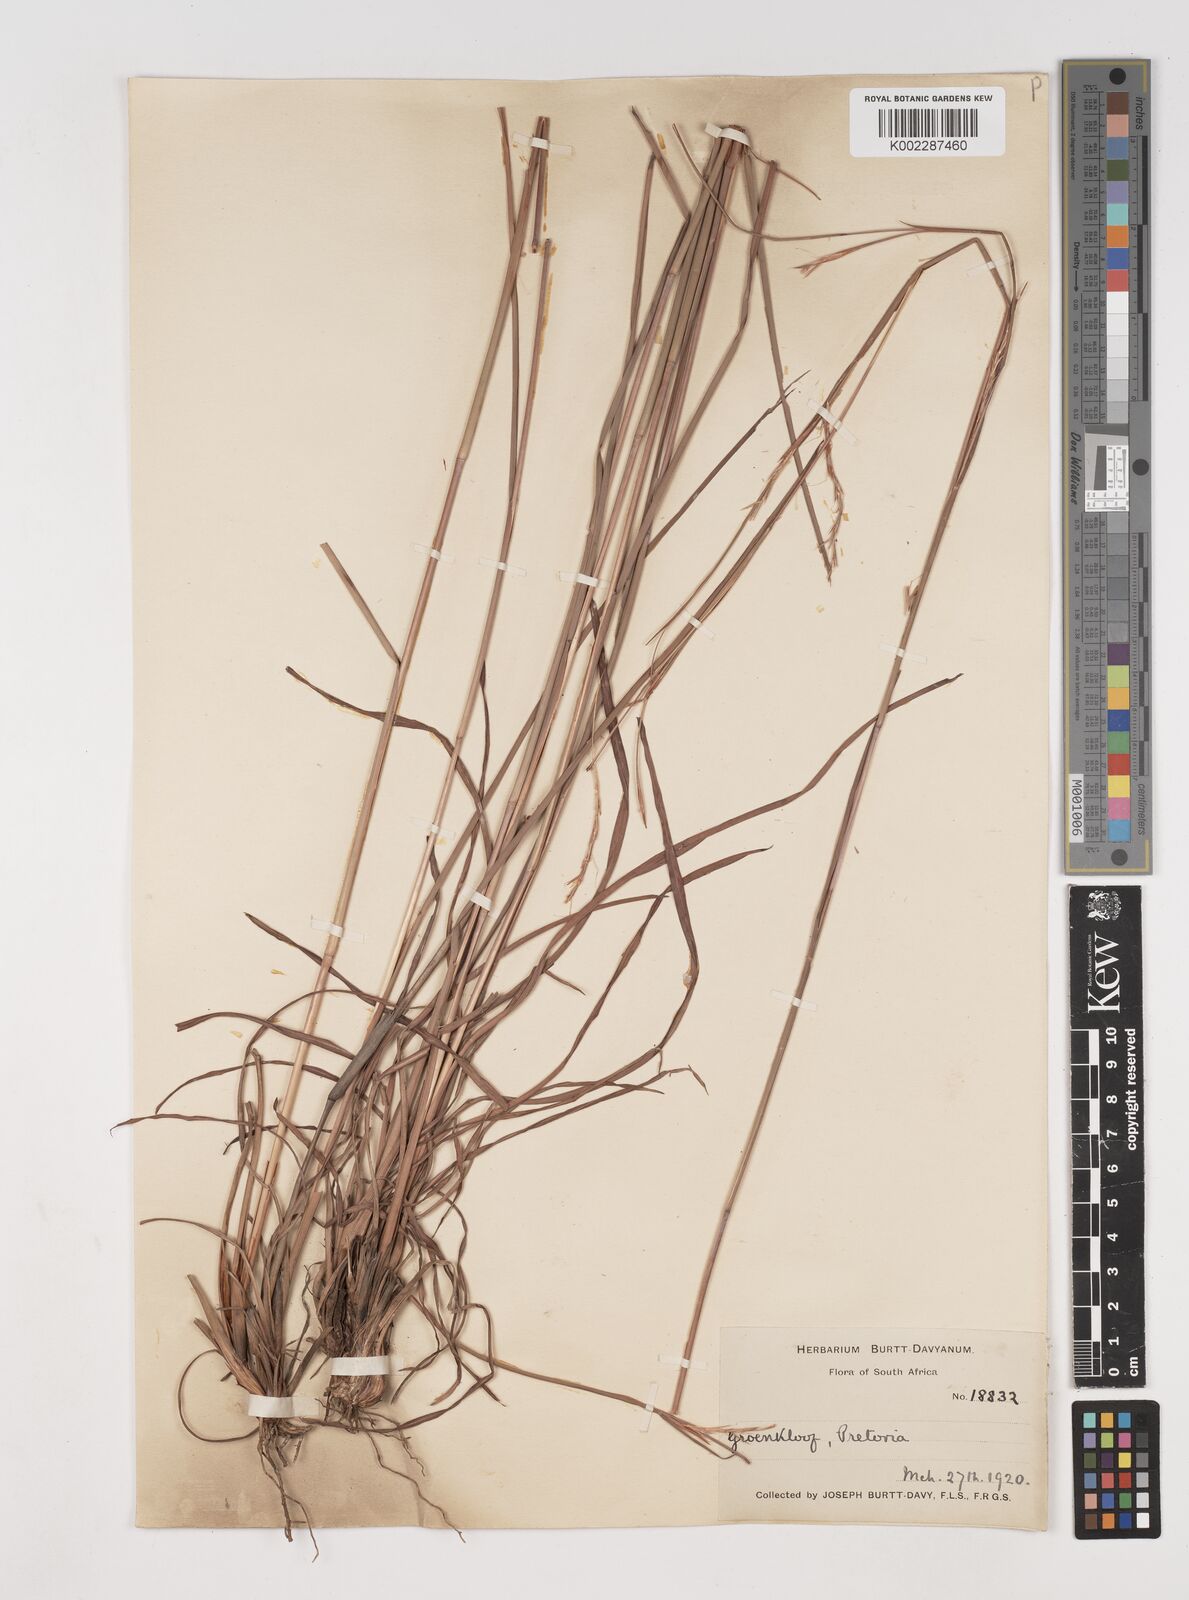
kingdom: Plantae
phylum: Tracheophyta
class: Liliopsida
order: Poales
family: Poaceae
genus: Schizachyrium
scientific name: Schizachyrium sanguineum
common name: Crimson bluestem
